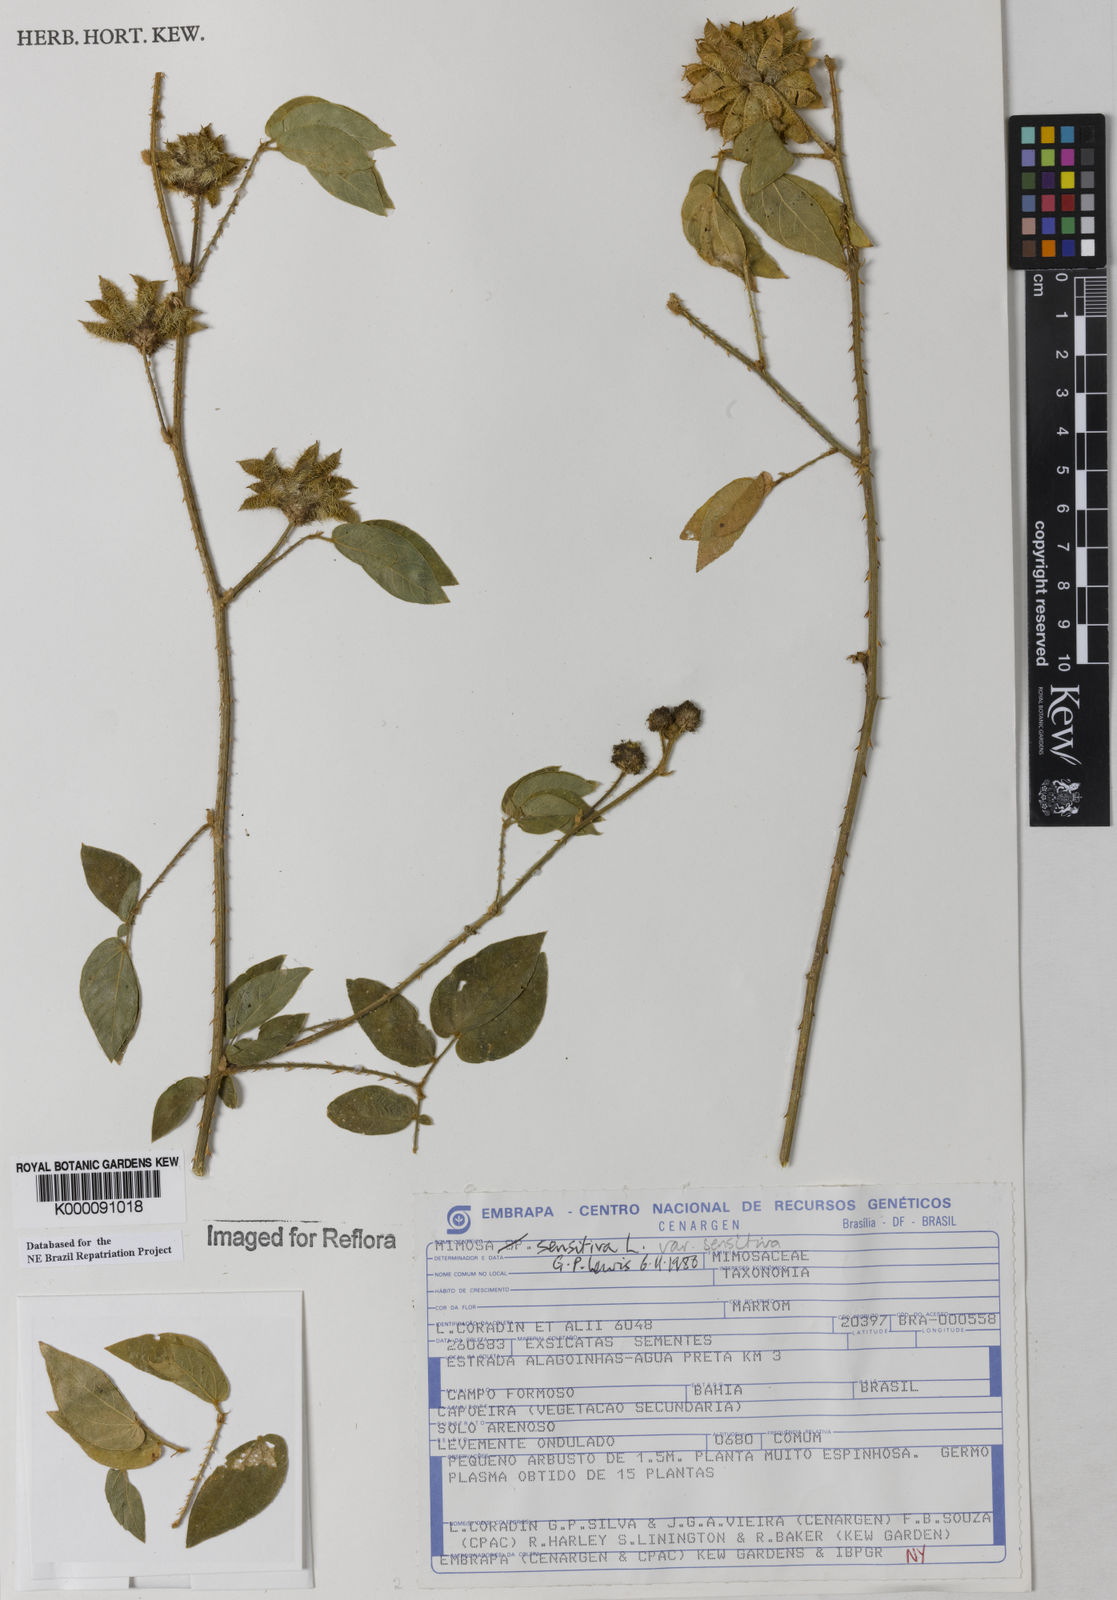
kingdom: Plantae
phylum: Tracheophyta
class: Magnoliopsida
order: Fabales
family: Fabaceae
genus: Mimosa
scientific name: Mimosa sensitiva
